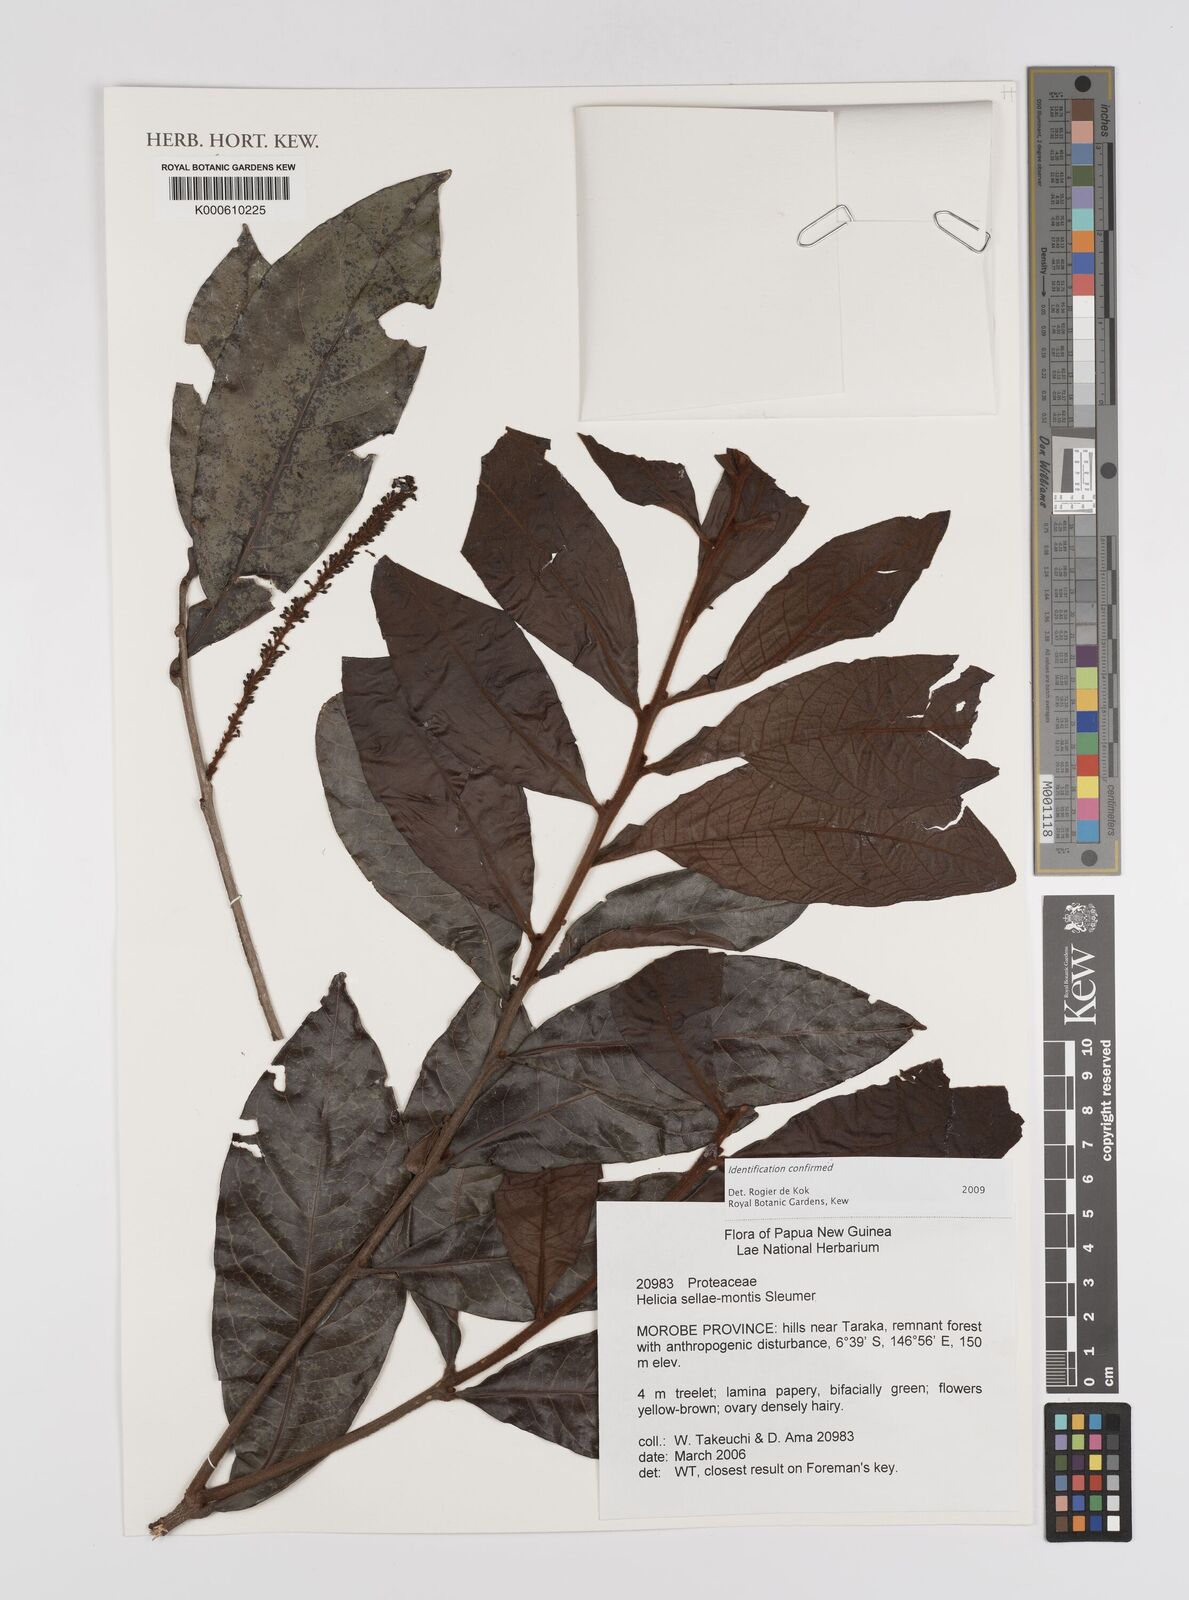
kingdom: Plantae
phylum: Tracheophyta
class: Magnoliopsida
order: Proteales
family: Proteaceae
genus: Helicia
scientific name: Helicia sellae-montis
